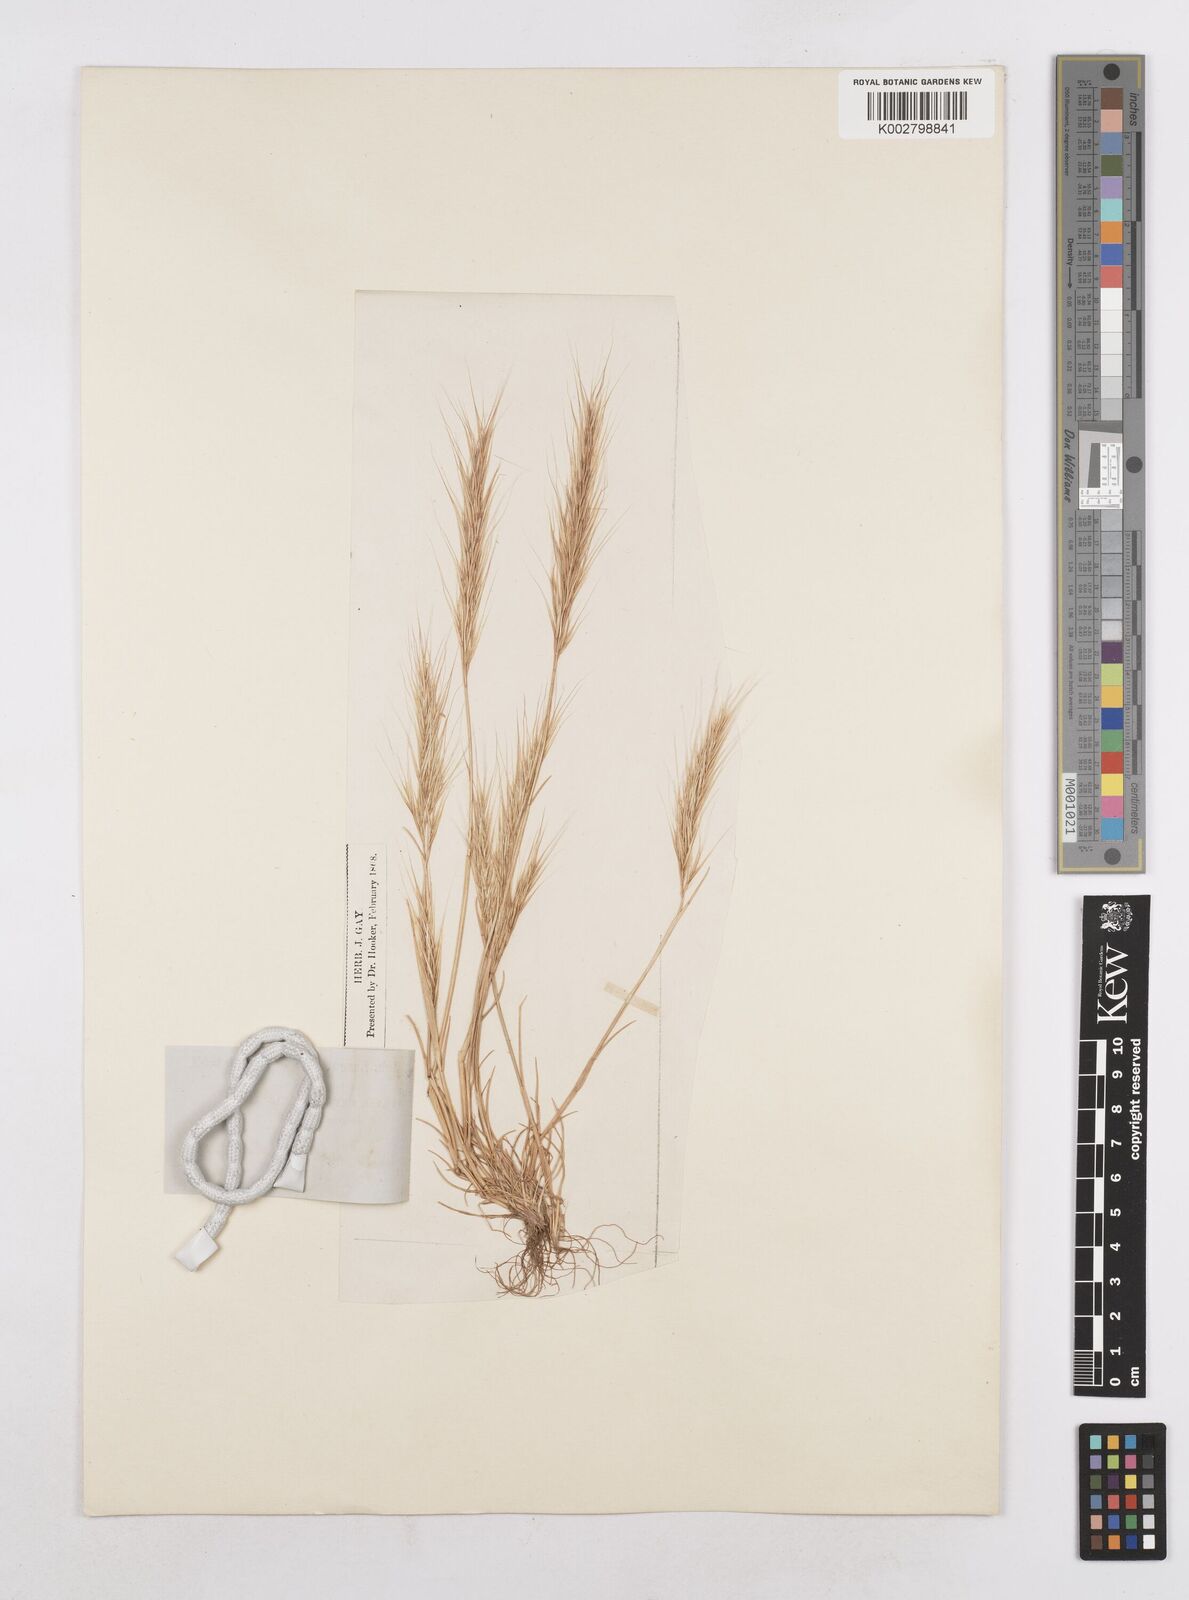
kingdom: Plantae
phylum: Tracheophyta
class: Liliopsida
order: Poales
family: Poaceae
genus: Festuca
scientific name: Festuca membranacea
